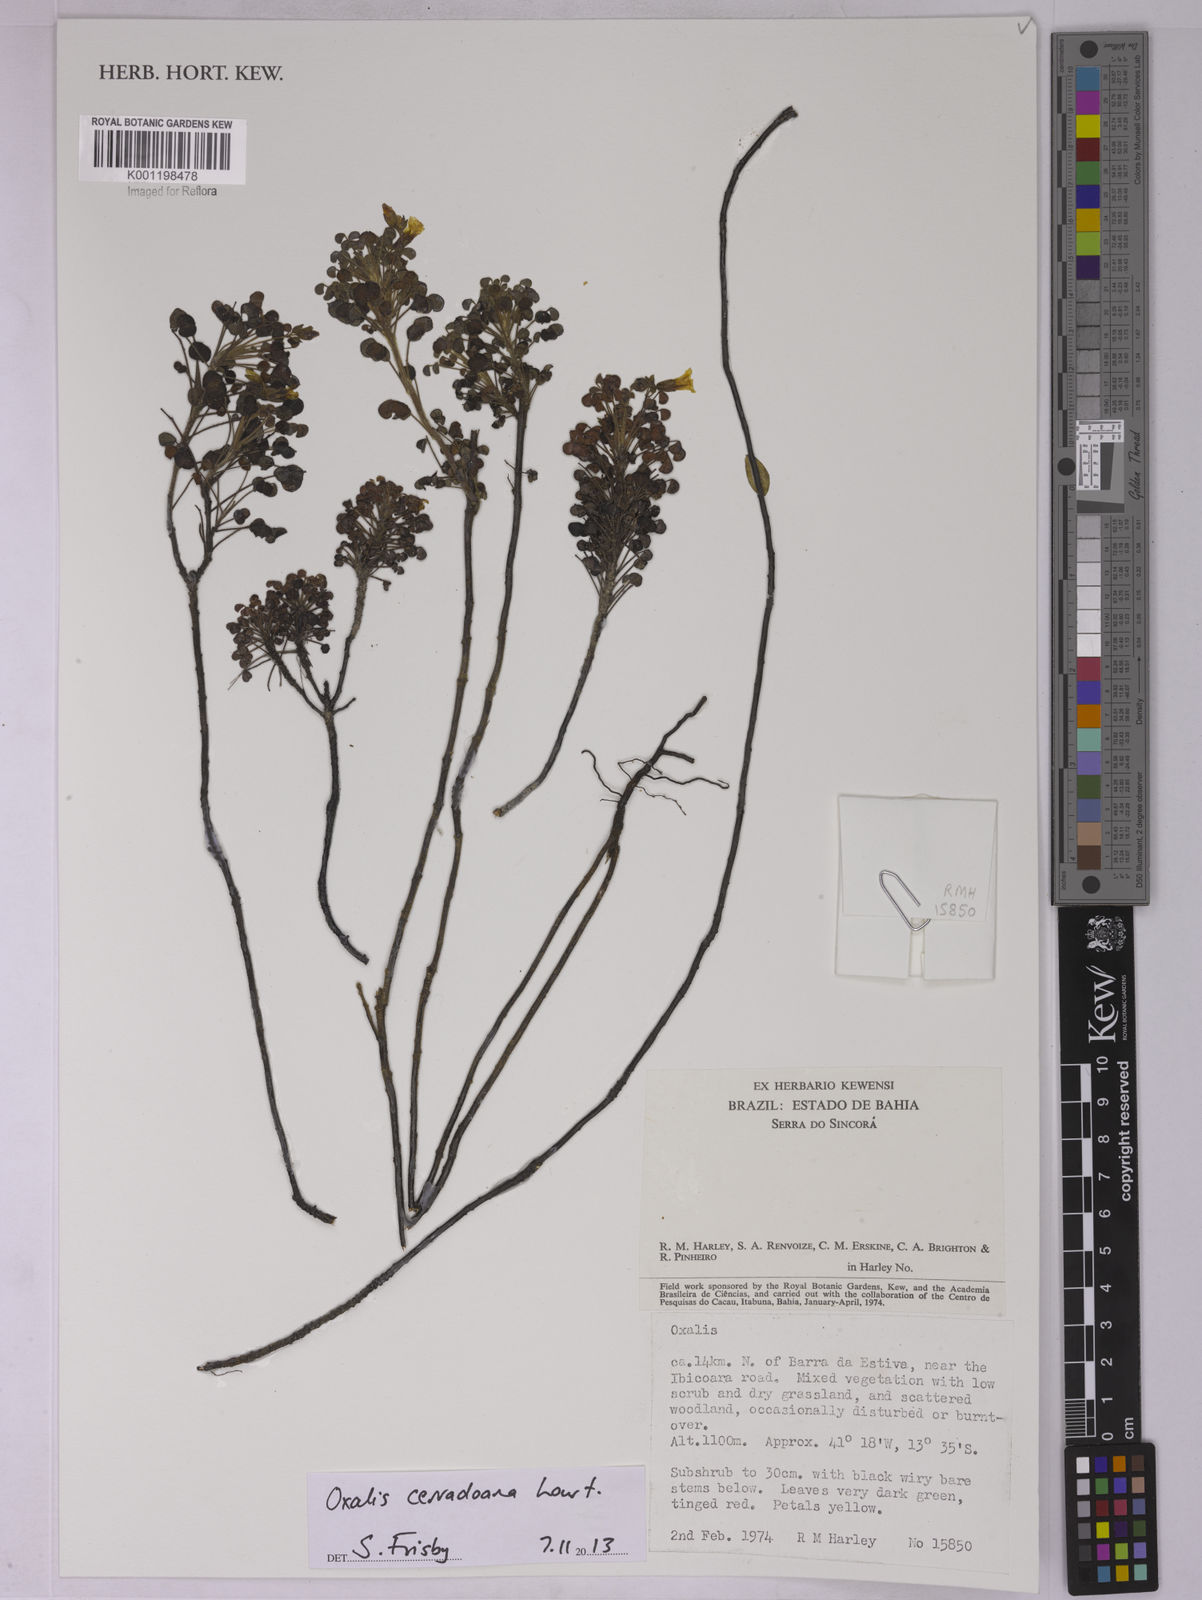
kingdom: Plantae
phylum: Tracheophyta
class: Magnoliopsida
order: Oxalidales
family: Oxalidaceae
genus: Oxalis
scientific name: Oxalis cerradoana
